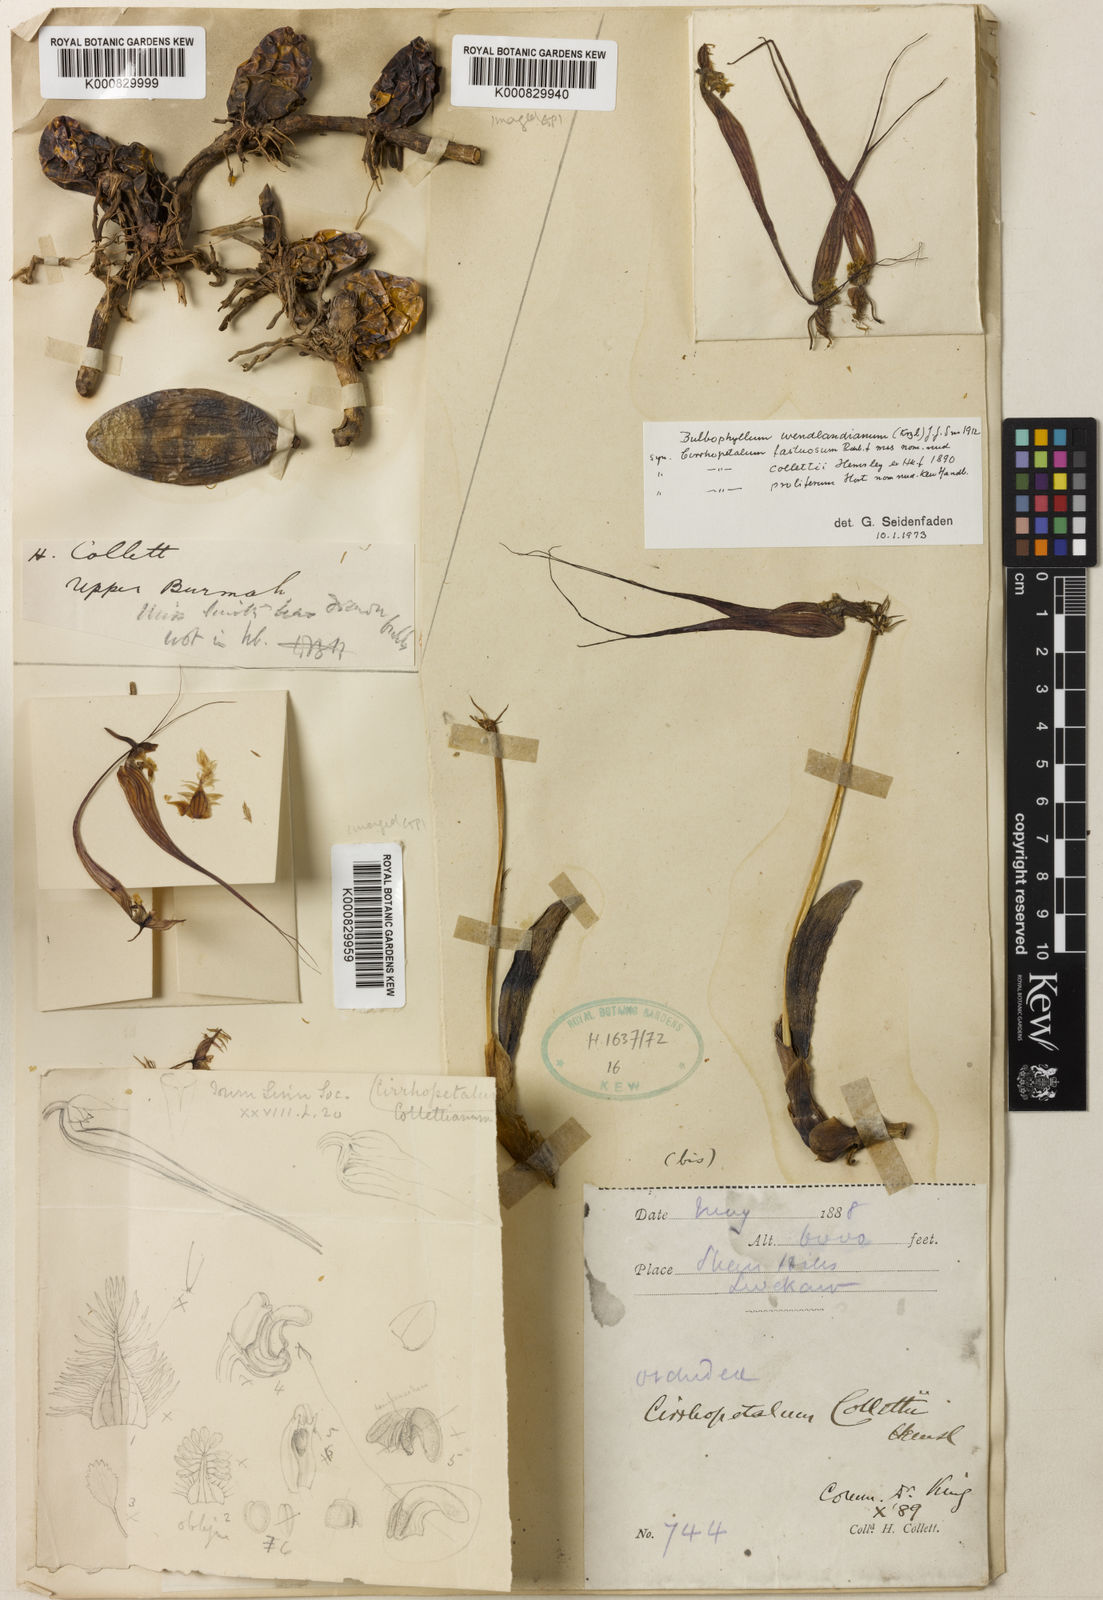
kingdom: Plantae
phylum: Tracheophyta
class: Liliopsida
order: Asparagales
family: Orchidaceae
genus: Bulbophyllum
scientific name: Bulbophyllum
